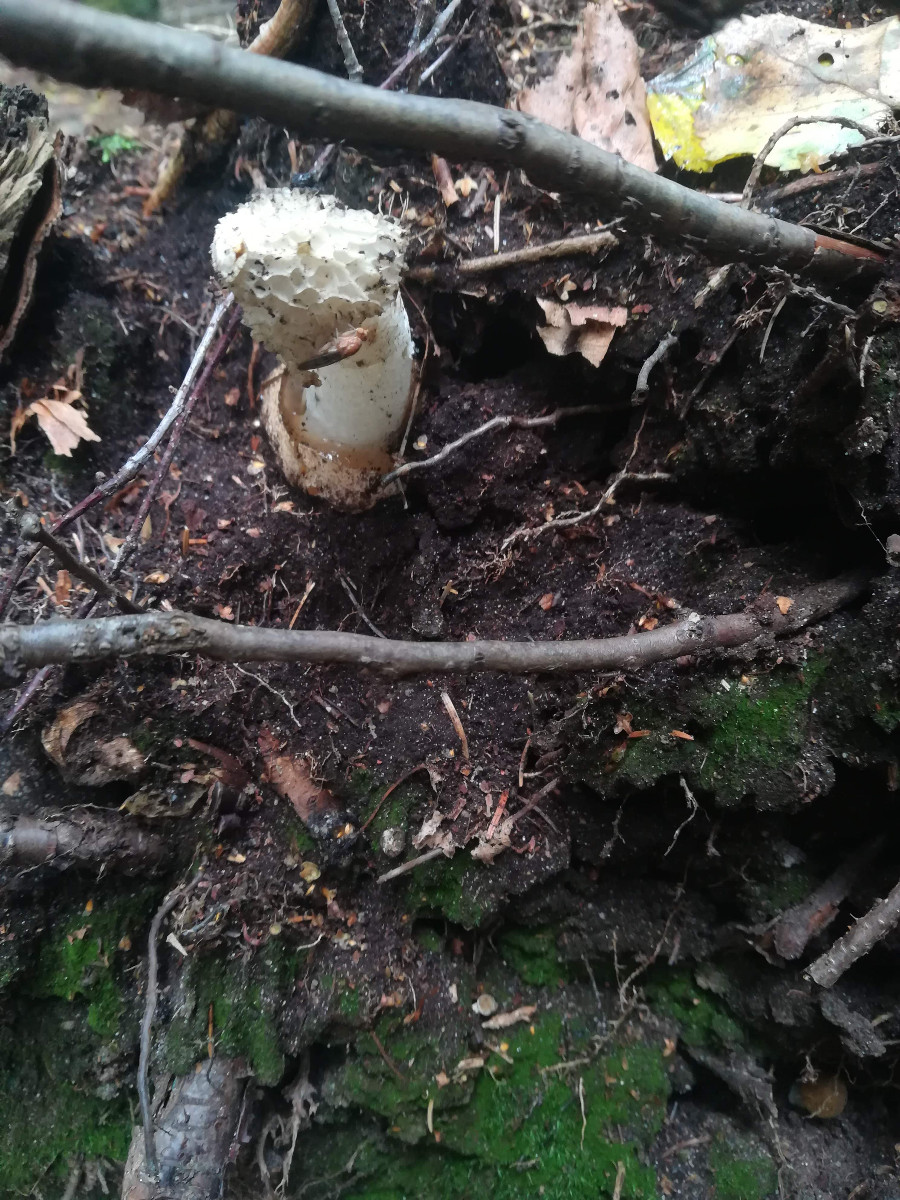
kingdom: Fungi
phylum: Basidiomycota
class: Agaricomycetes
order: Phallales
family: Phallaceae
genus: Phallus
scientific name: Phallus impudicus
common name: almindelig stinksvamp
